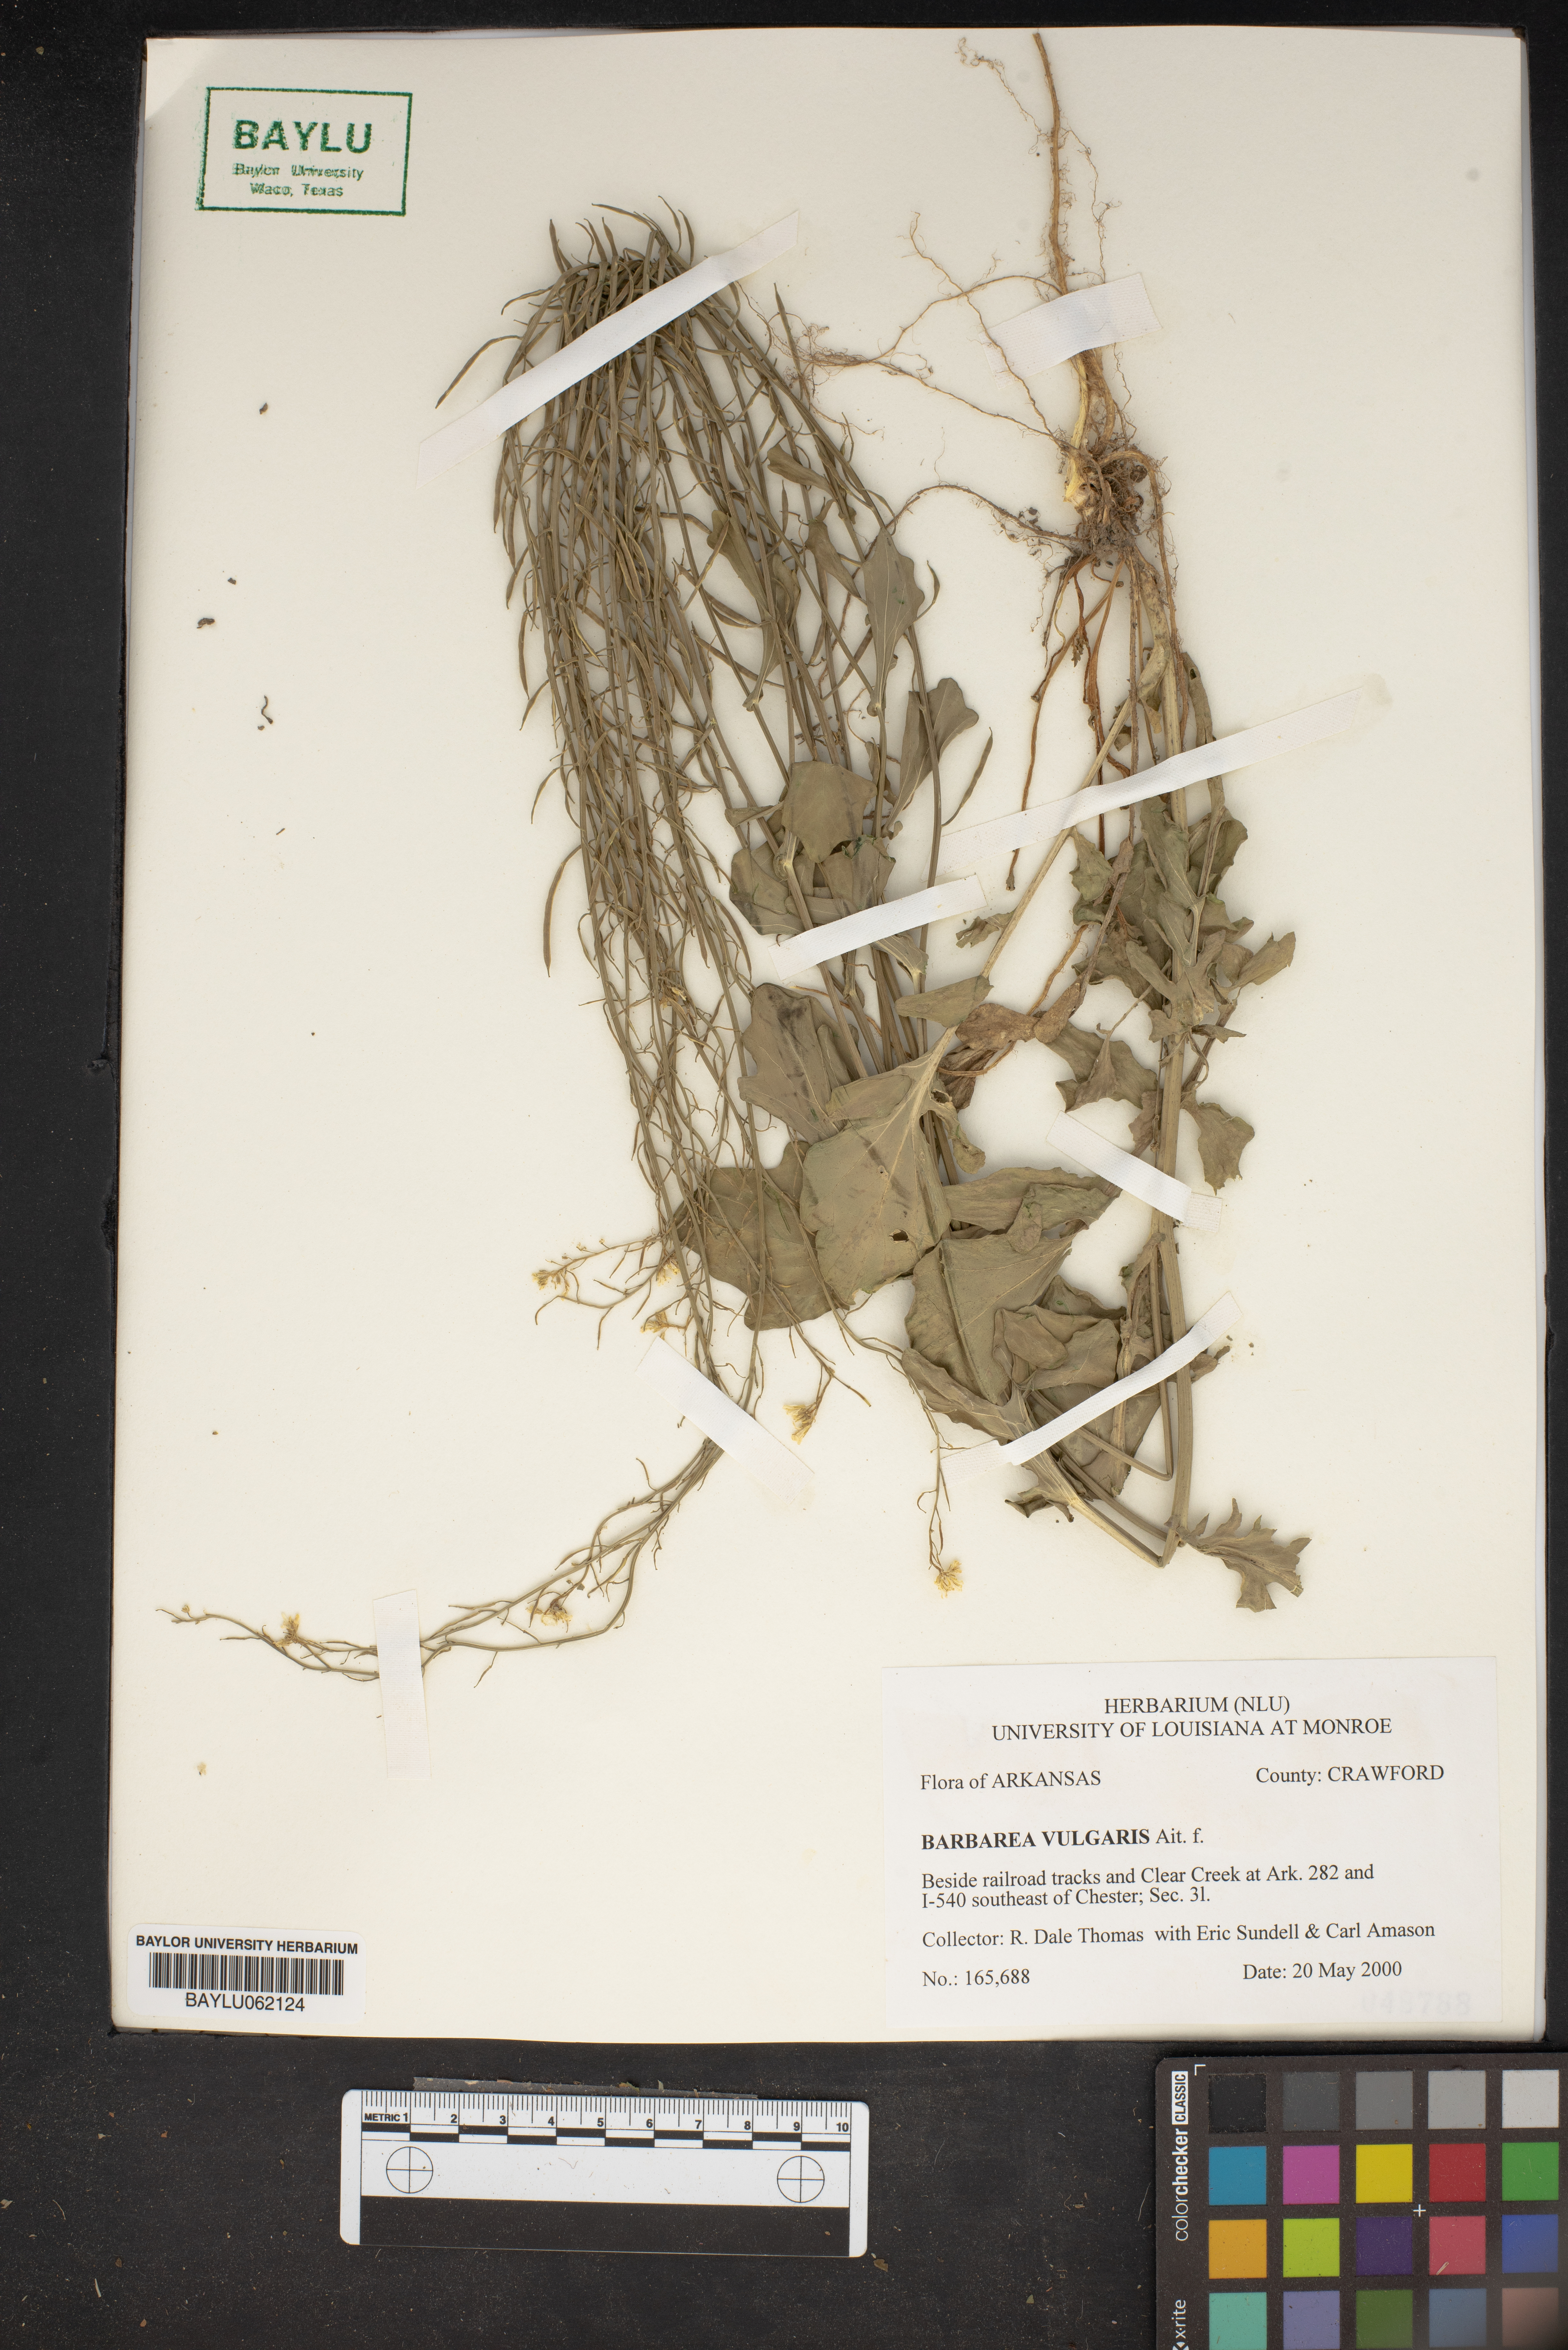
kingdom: Plantae
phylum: Tracheophyta
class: Magnoliopsida
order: Brassicales
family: Brassicaceae
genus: Barbarea
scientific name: Barbarea vulgaris
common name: Cressy-greens
